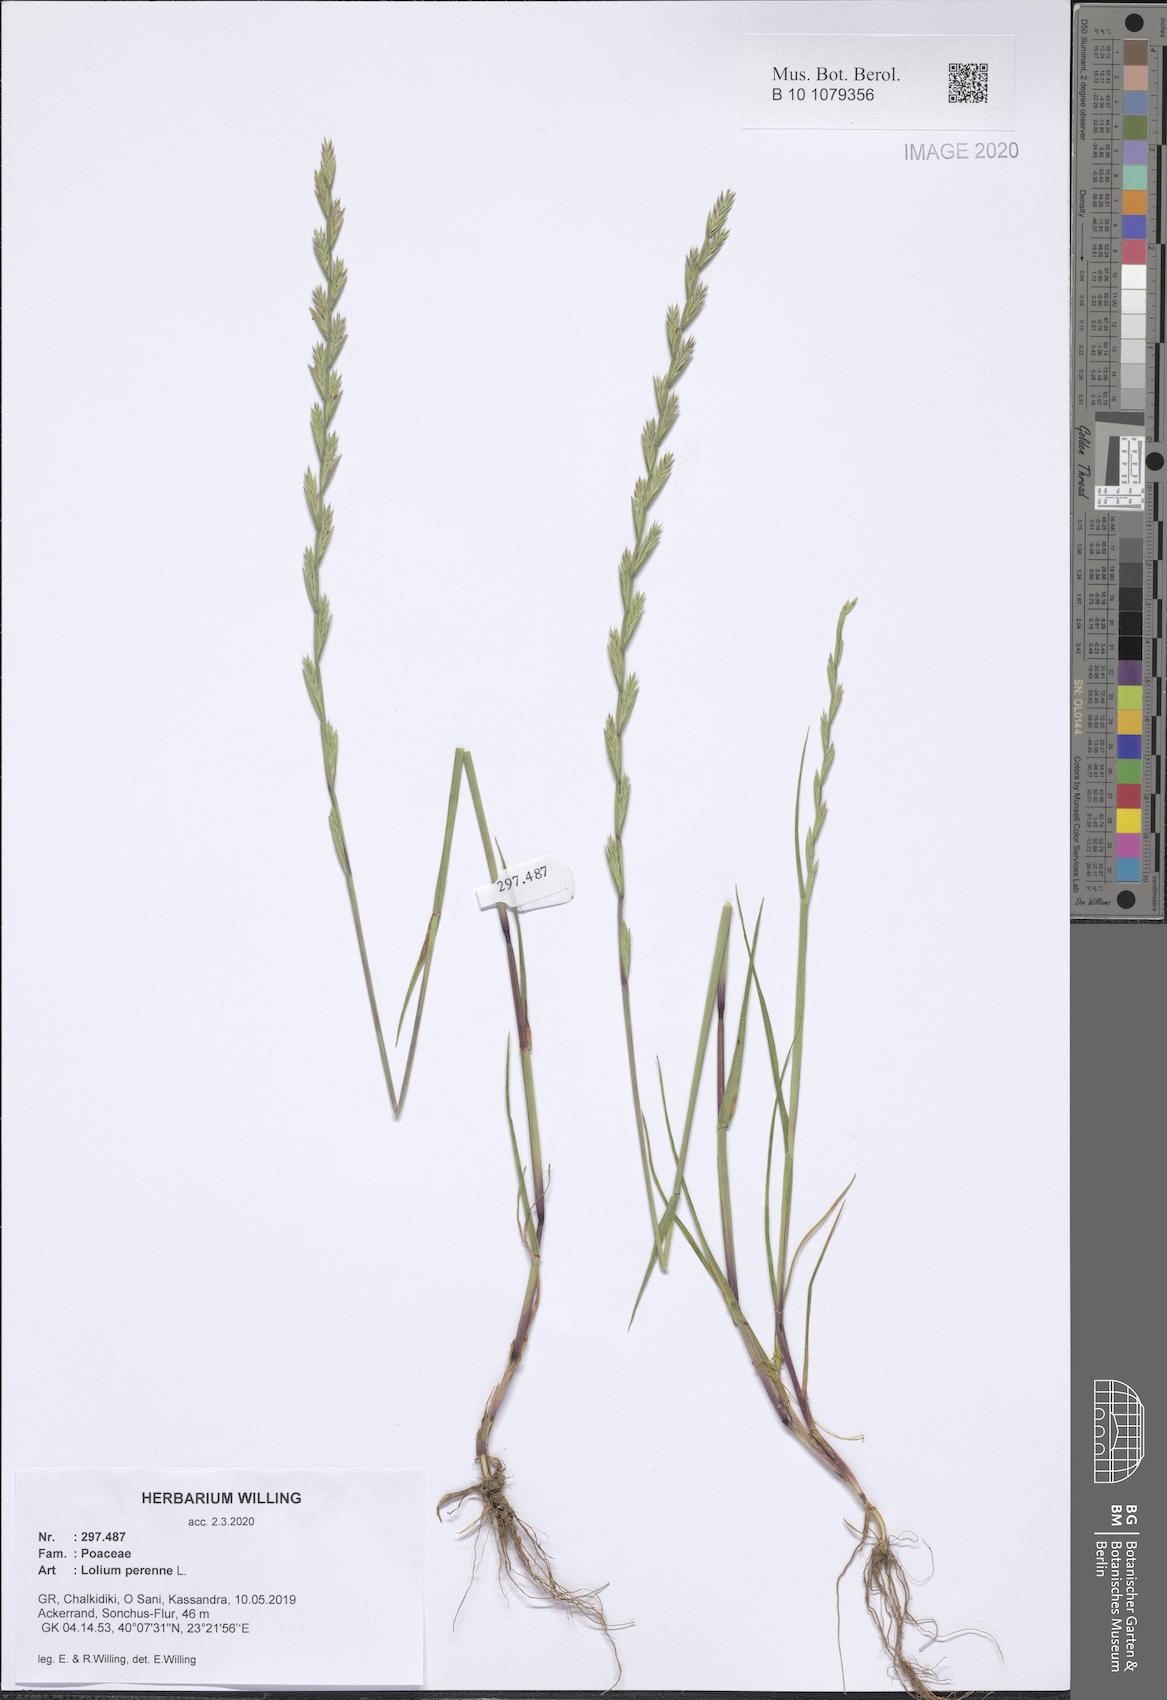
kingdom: Plantae
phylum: Tracheophyta
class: Liliopsida
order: Poales
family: Poaceae
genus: Lolium
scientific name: Lolium perenne
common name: Perennial ryegrass
